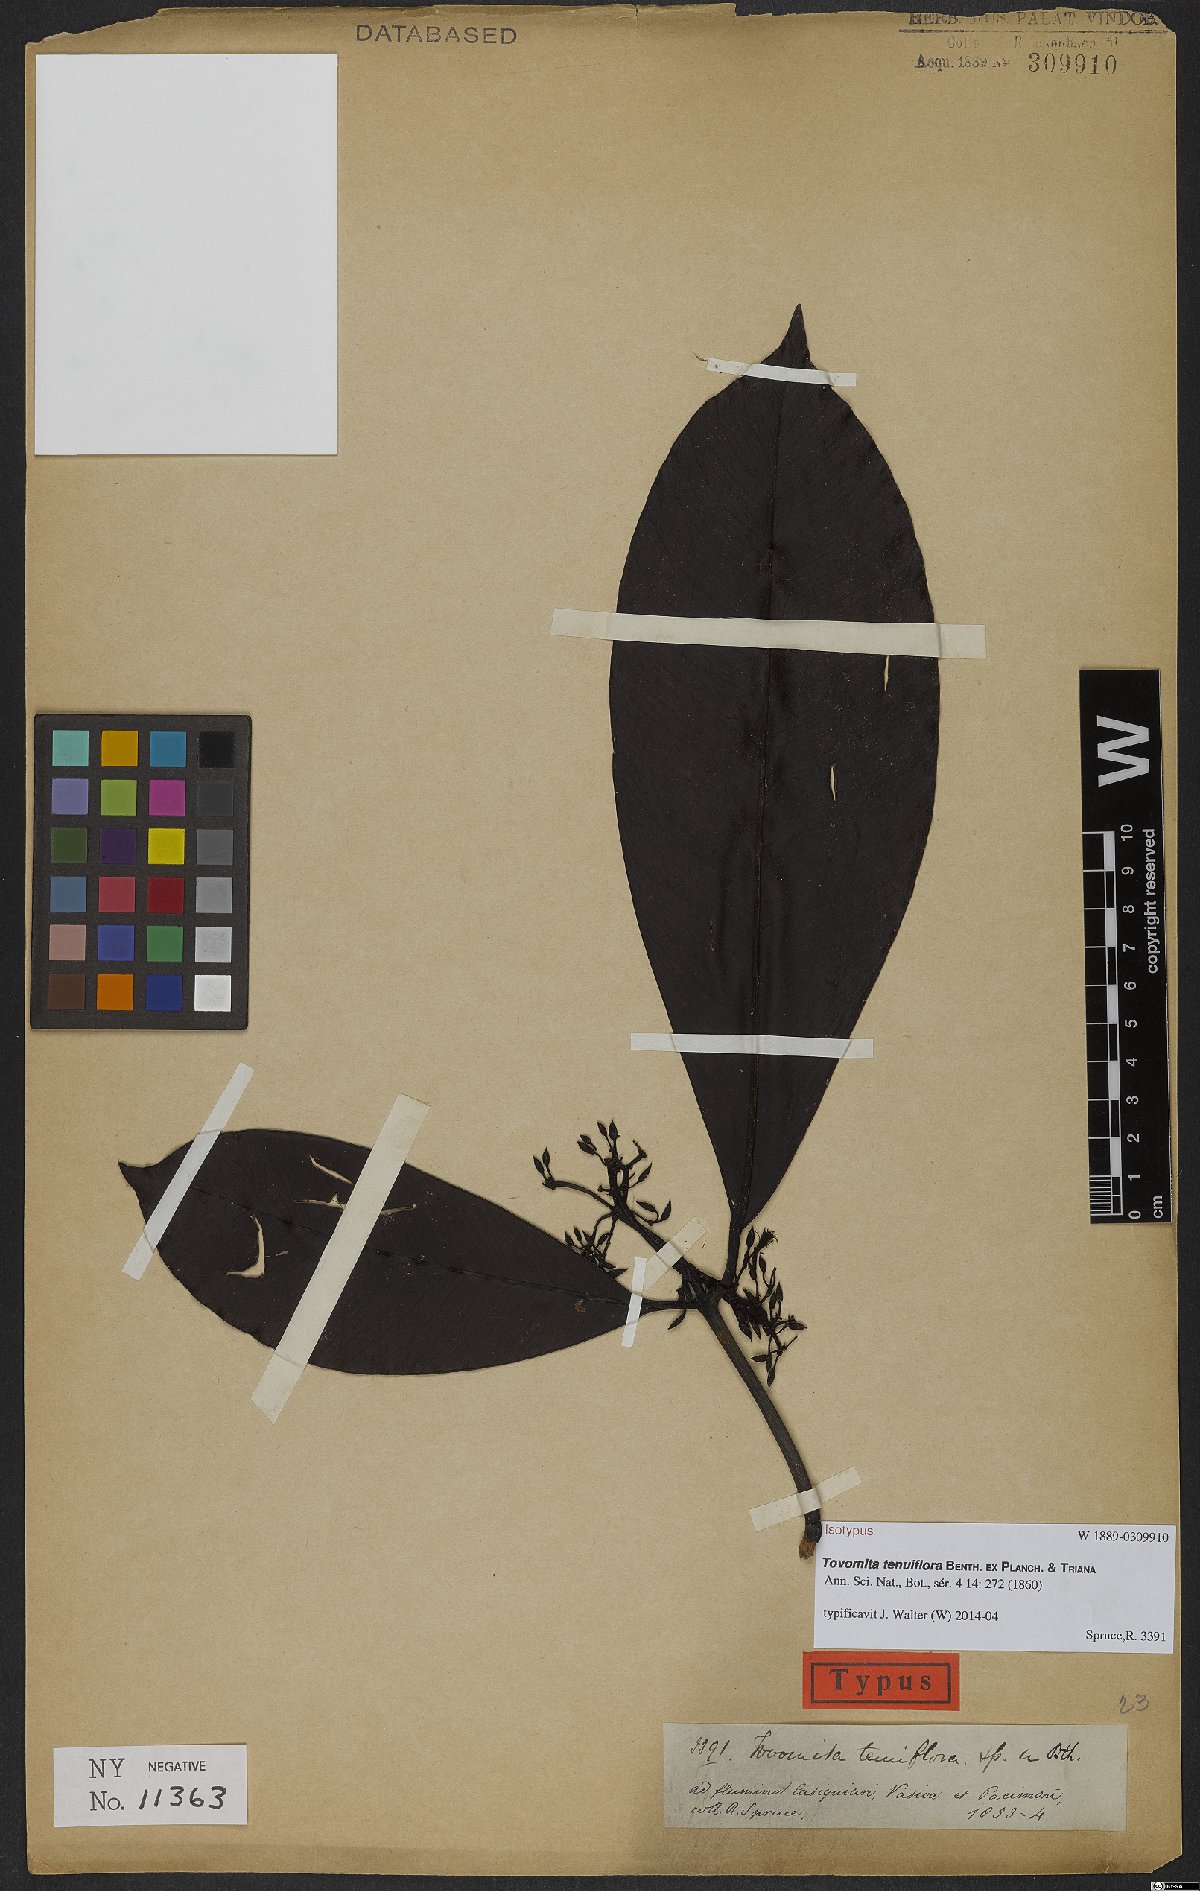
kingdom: Plantae
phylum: Tracheophyta
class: Magnoliopsida
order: Malpighiales
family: Clusiaceae
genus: Tovomita
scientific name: Tovomita tenuiflora
